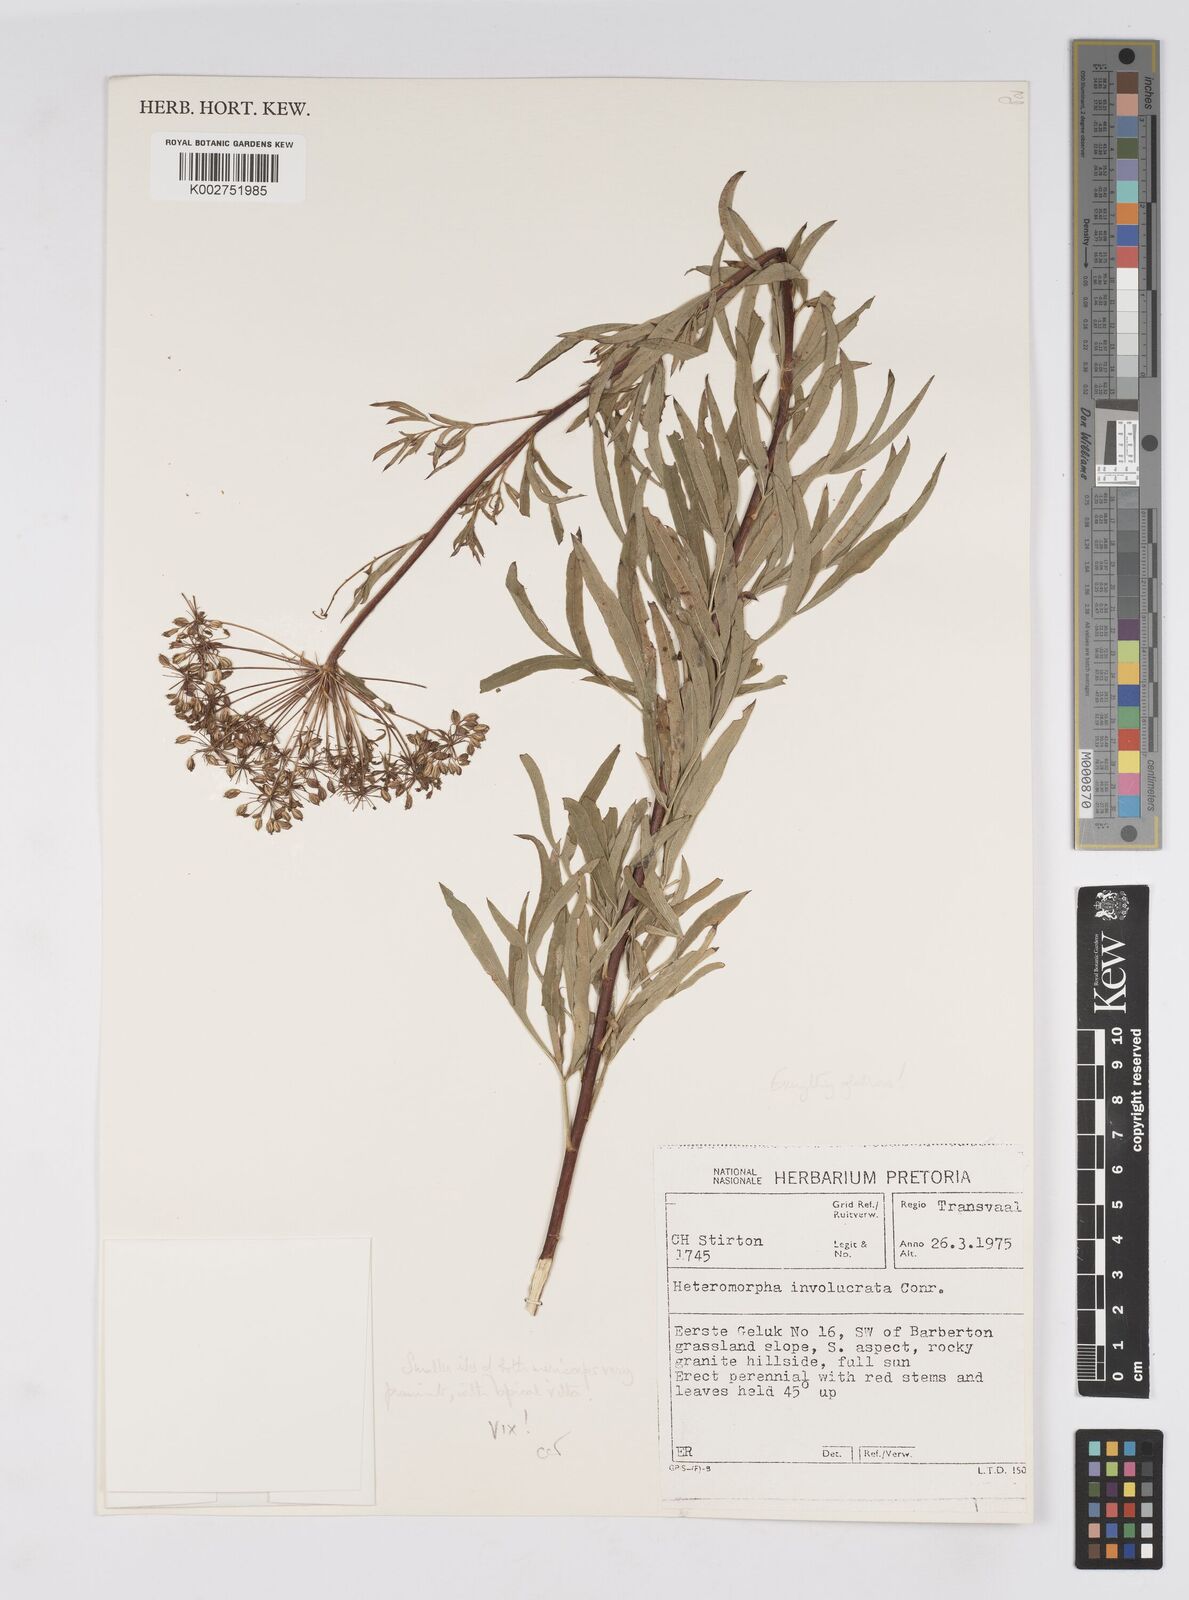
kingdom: Plantae
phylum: Tracheophyta
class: Magnoliopsida
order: Apiales
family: Apiaceae
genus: Heteromorpha
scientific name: Heteromorpha involucrata
